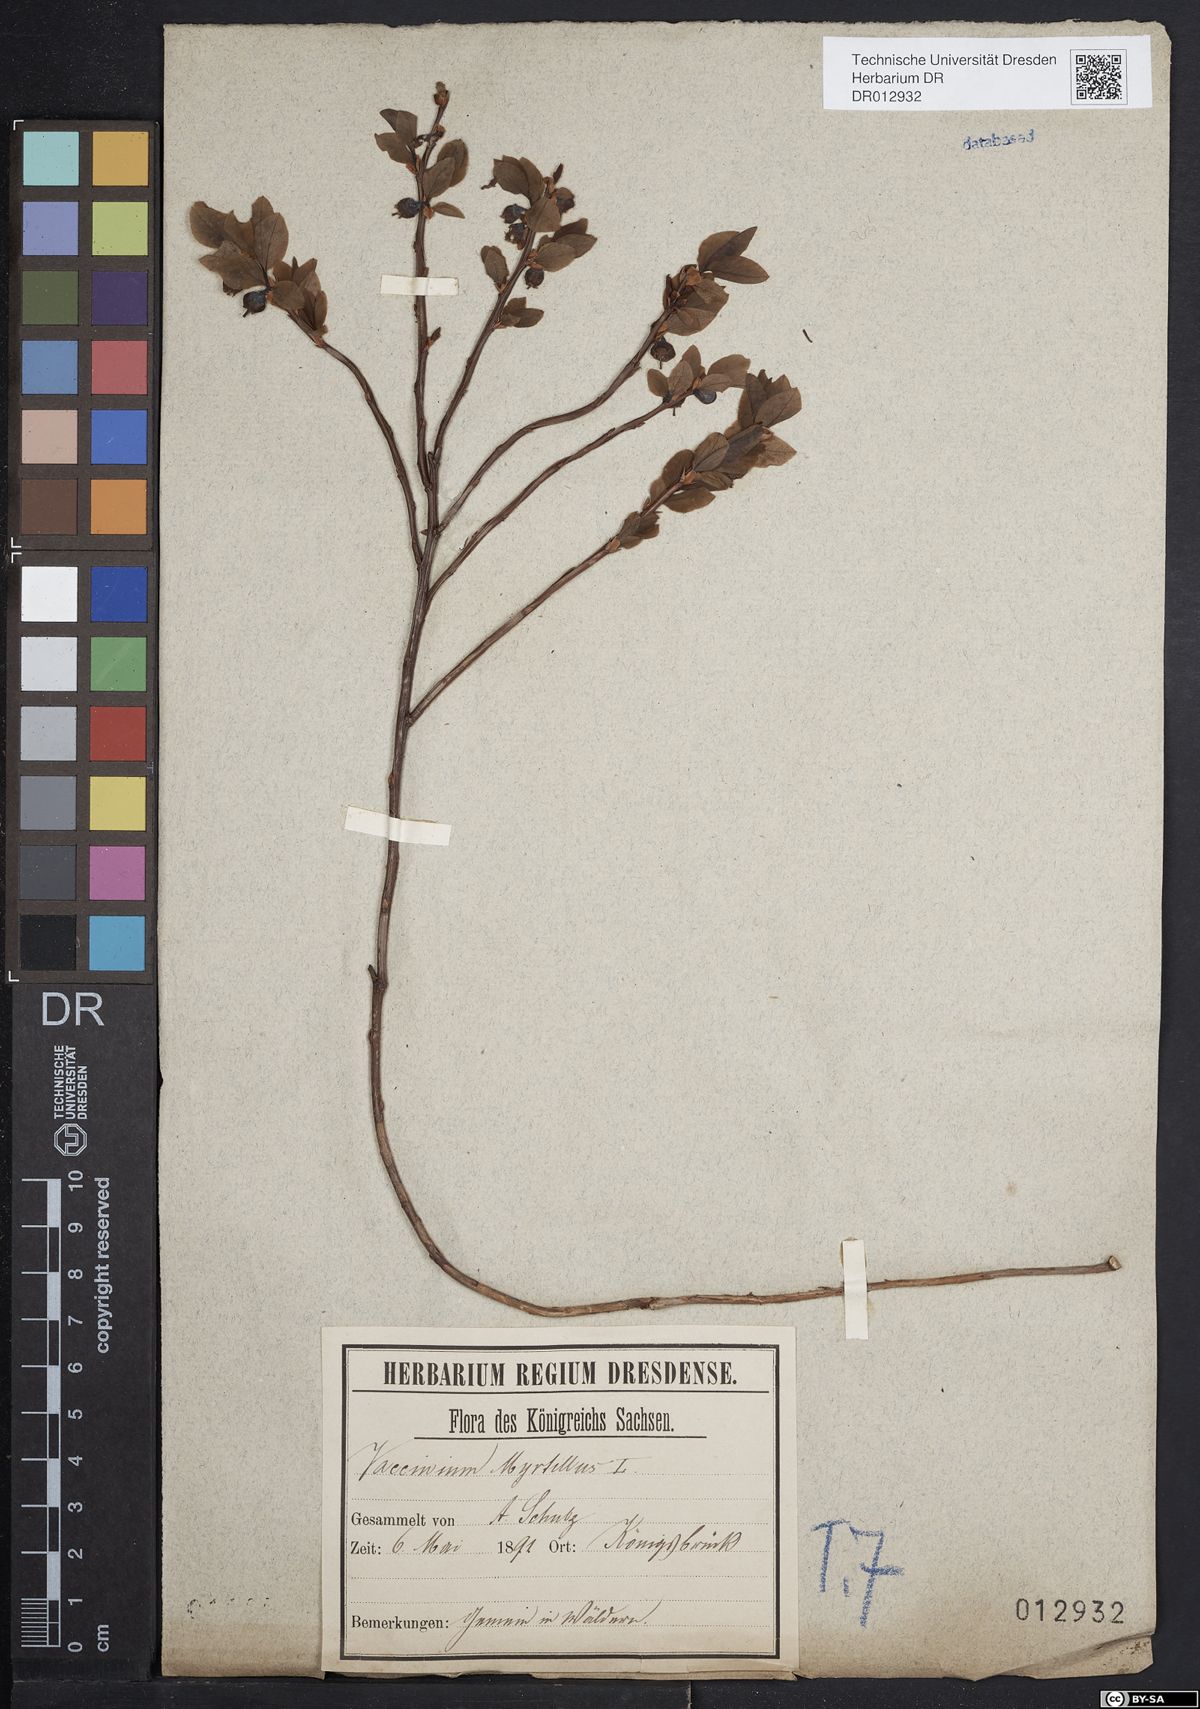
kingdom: Plantae
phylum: Tracheophyta
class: Magnoliopsida
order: Ericales
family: Ericaceae
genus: Vaccinium
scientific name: Vaccinium myrtillus
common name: Bilberry
